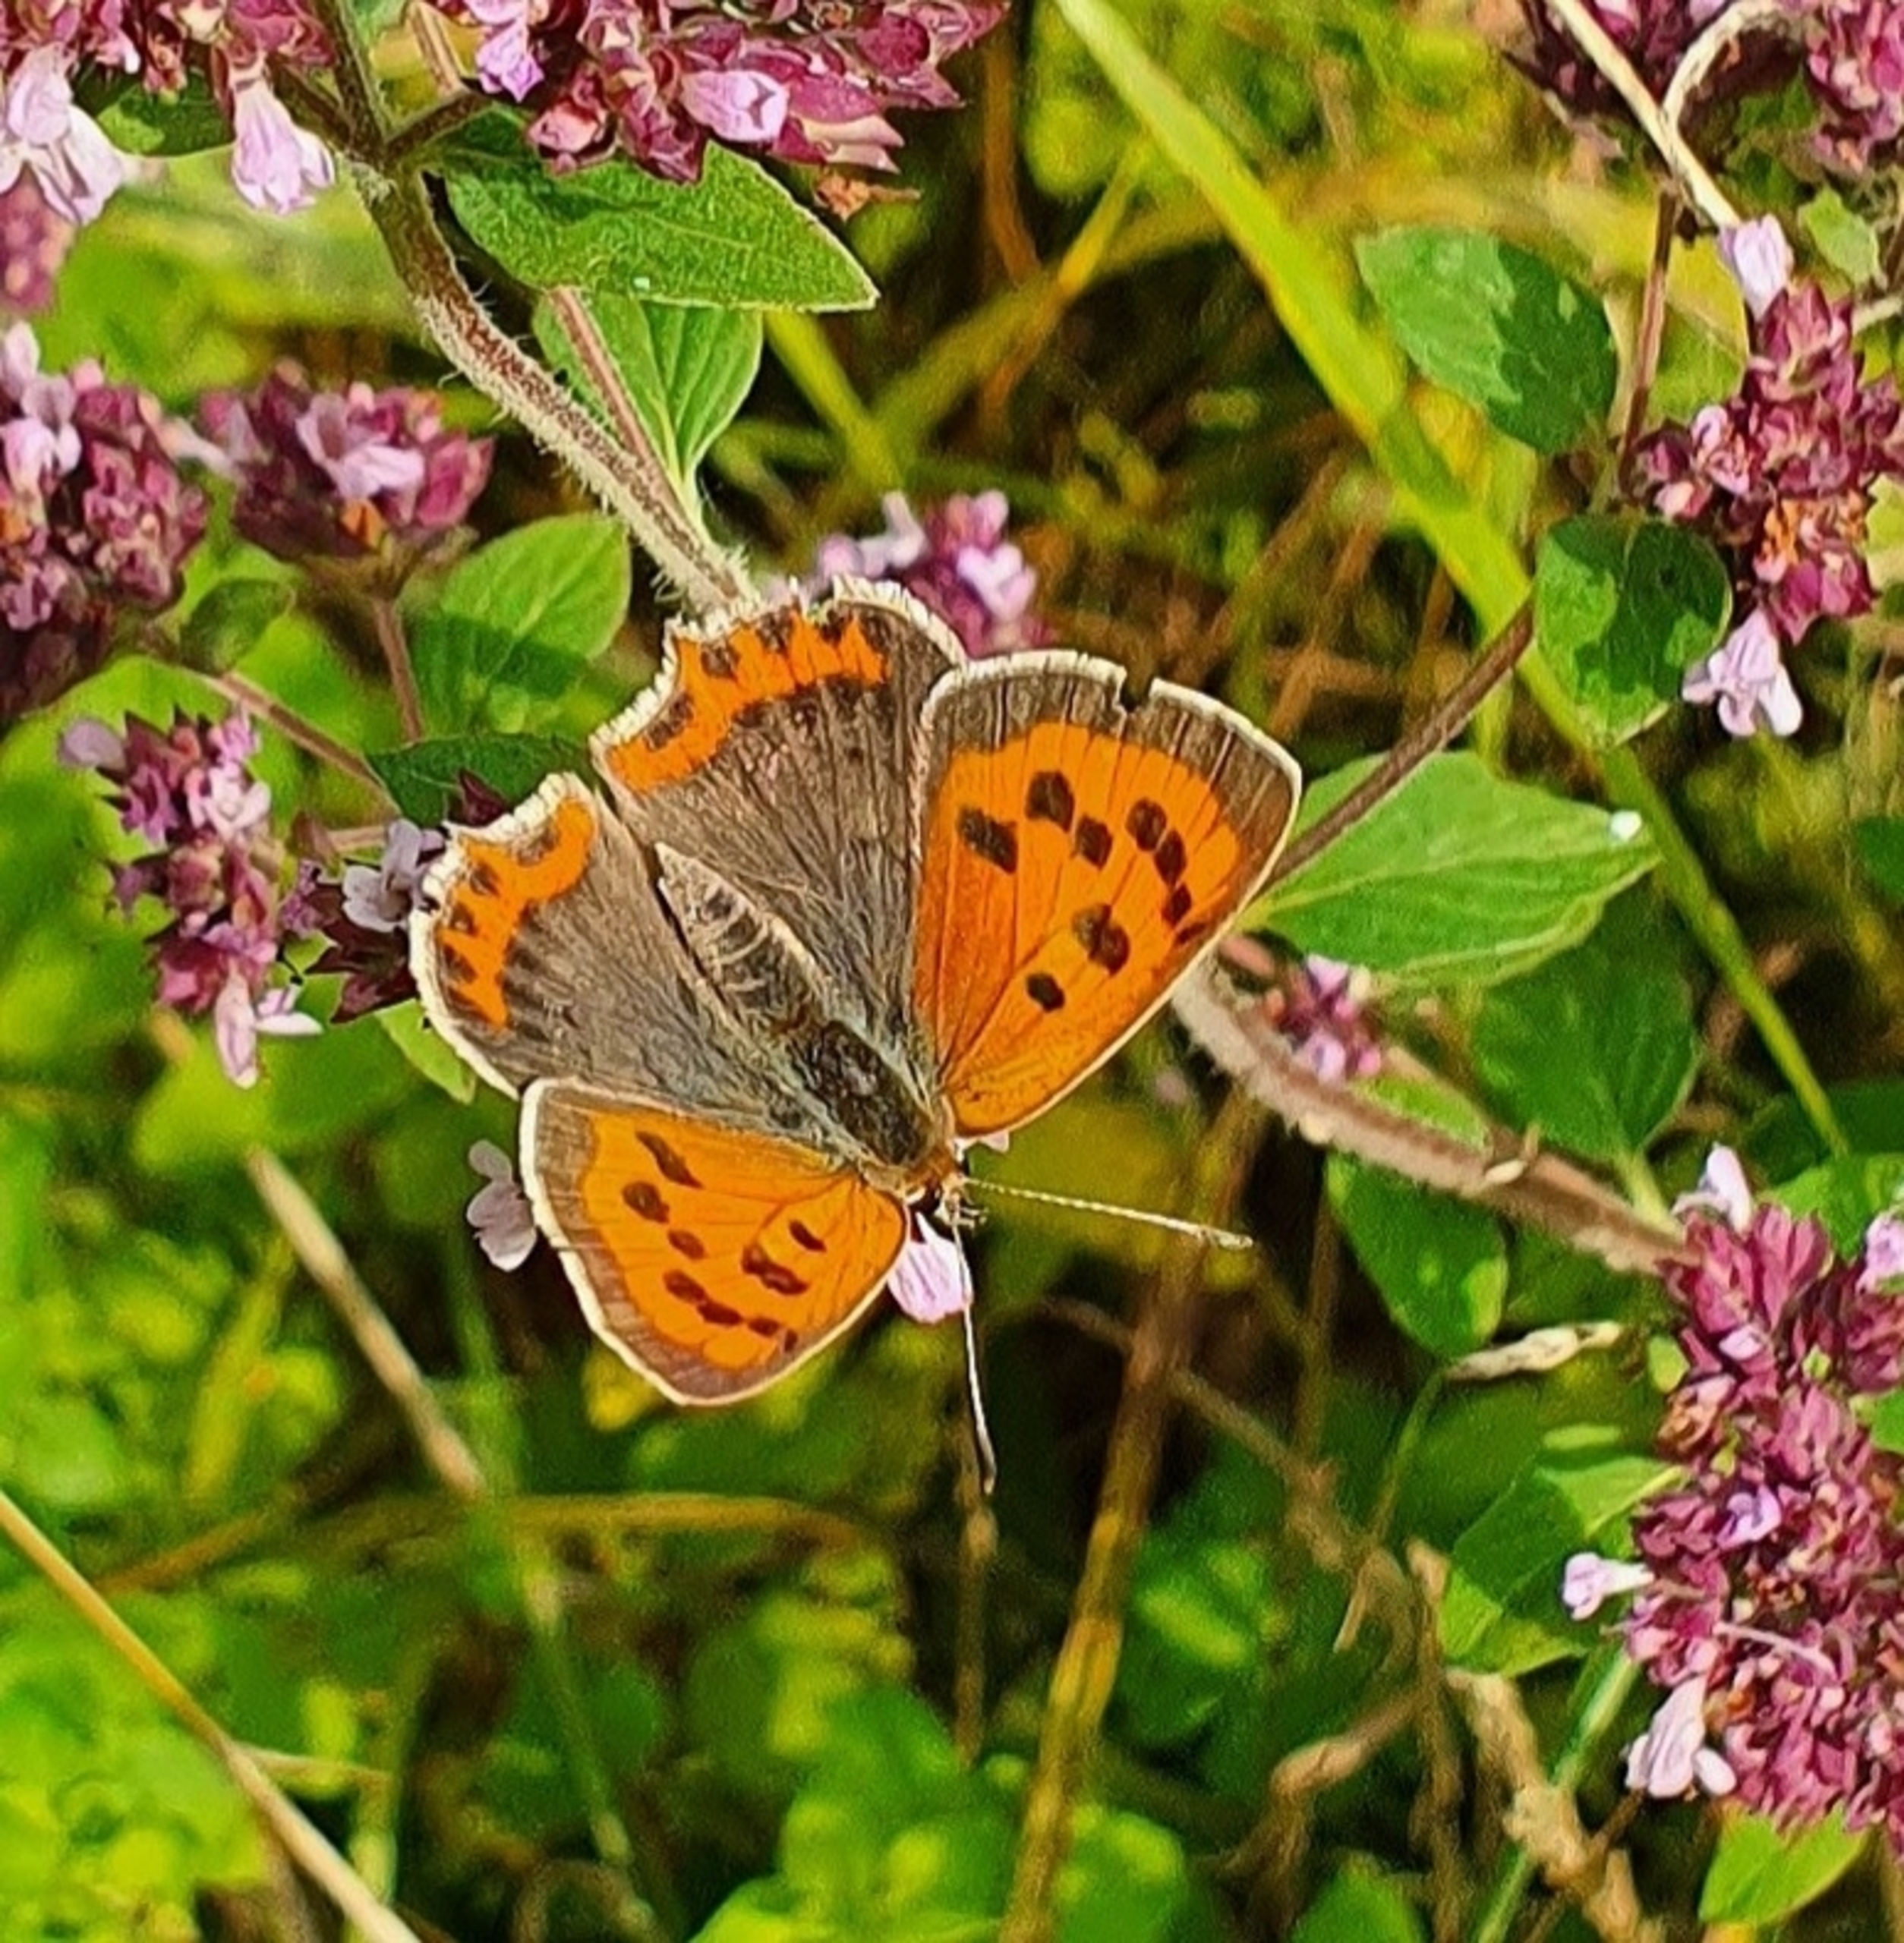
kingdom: Animalia
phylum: Arthropoda
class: Insecta
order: Lepidoptera
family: Lycaenidae
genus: Lycaena
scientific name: Lycaena phlaeas
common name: Lille ildfugl
